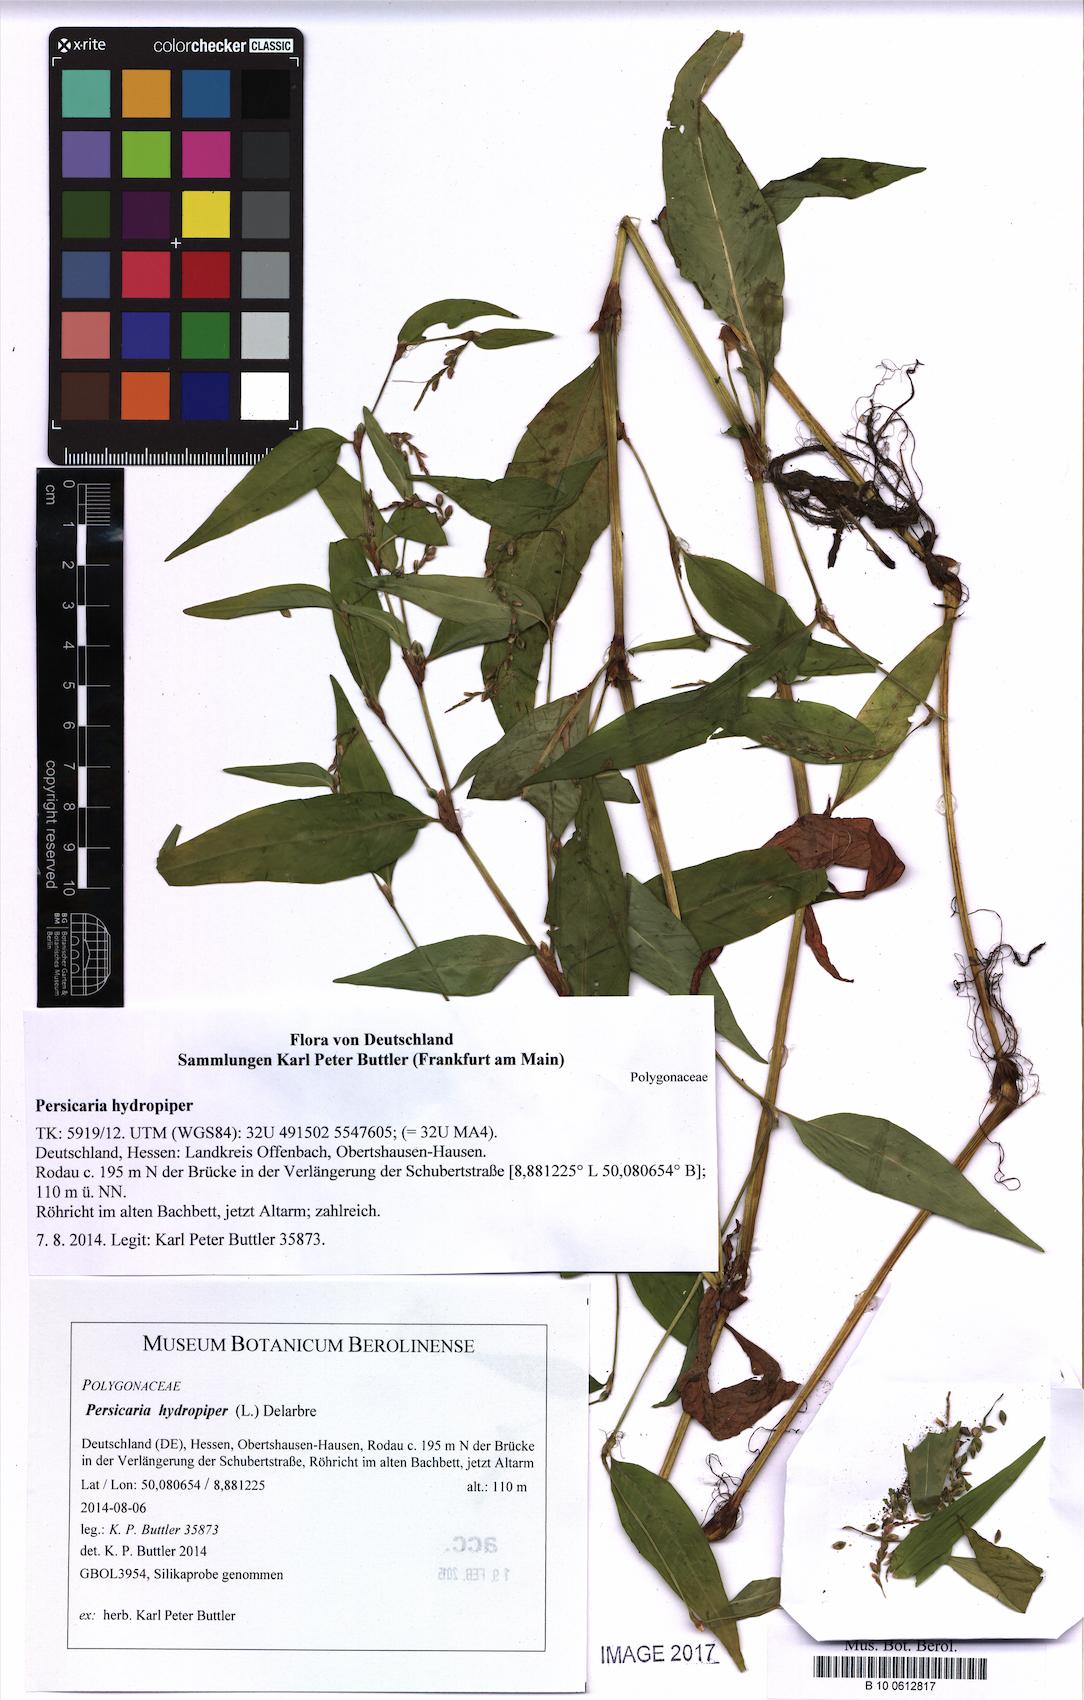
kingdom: Plantae
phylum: Tracheophyta
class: Magnoliopsida
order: Caryophyllales
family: Polygonaceae
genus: Persicaria
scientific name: Persicaria hydropiper
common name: Water-pepper
